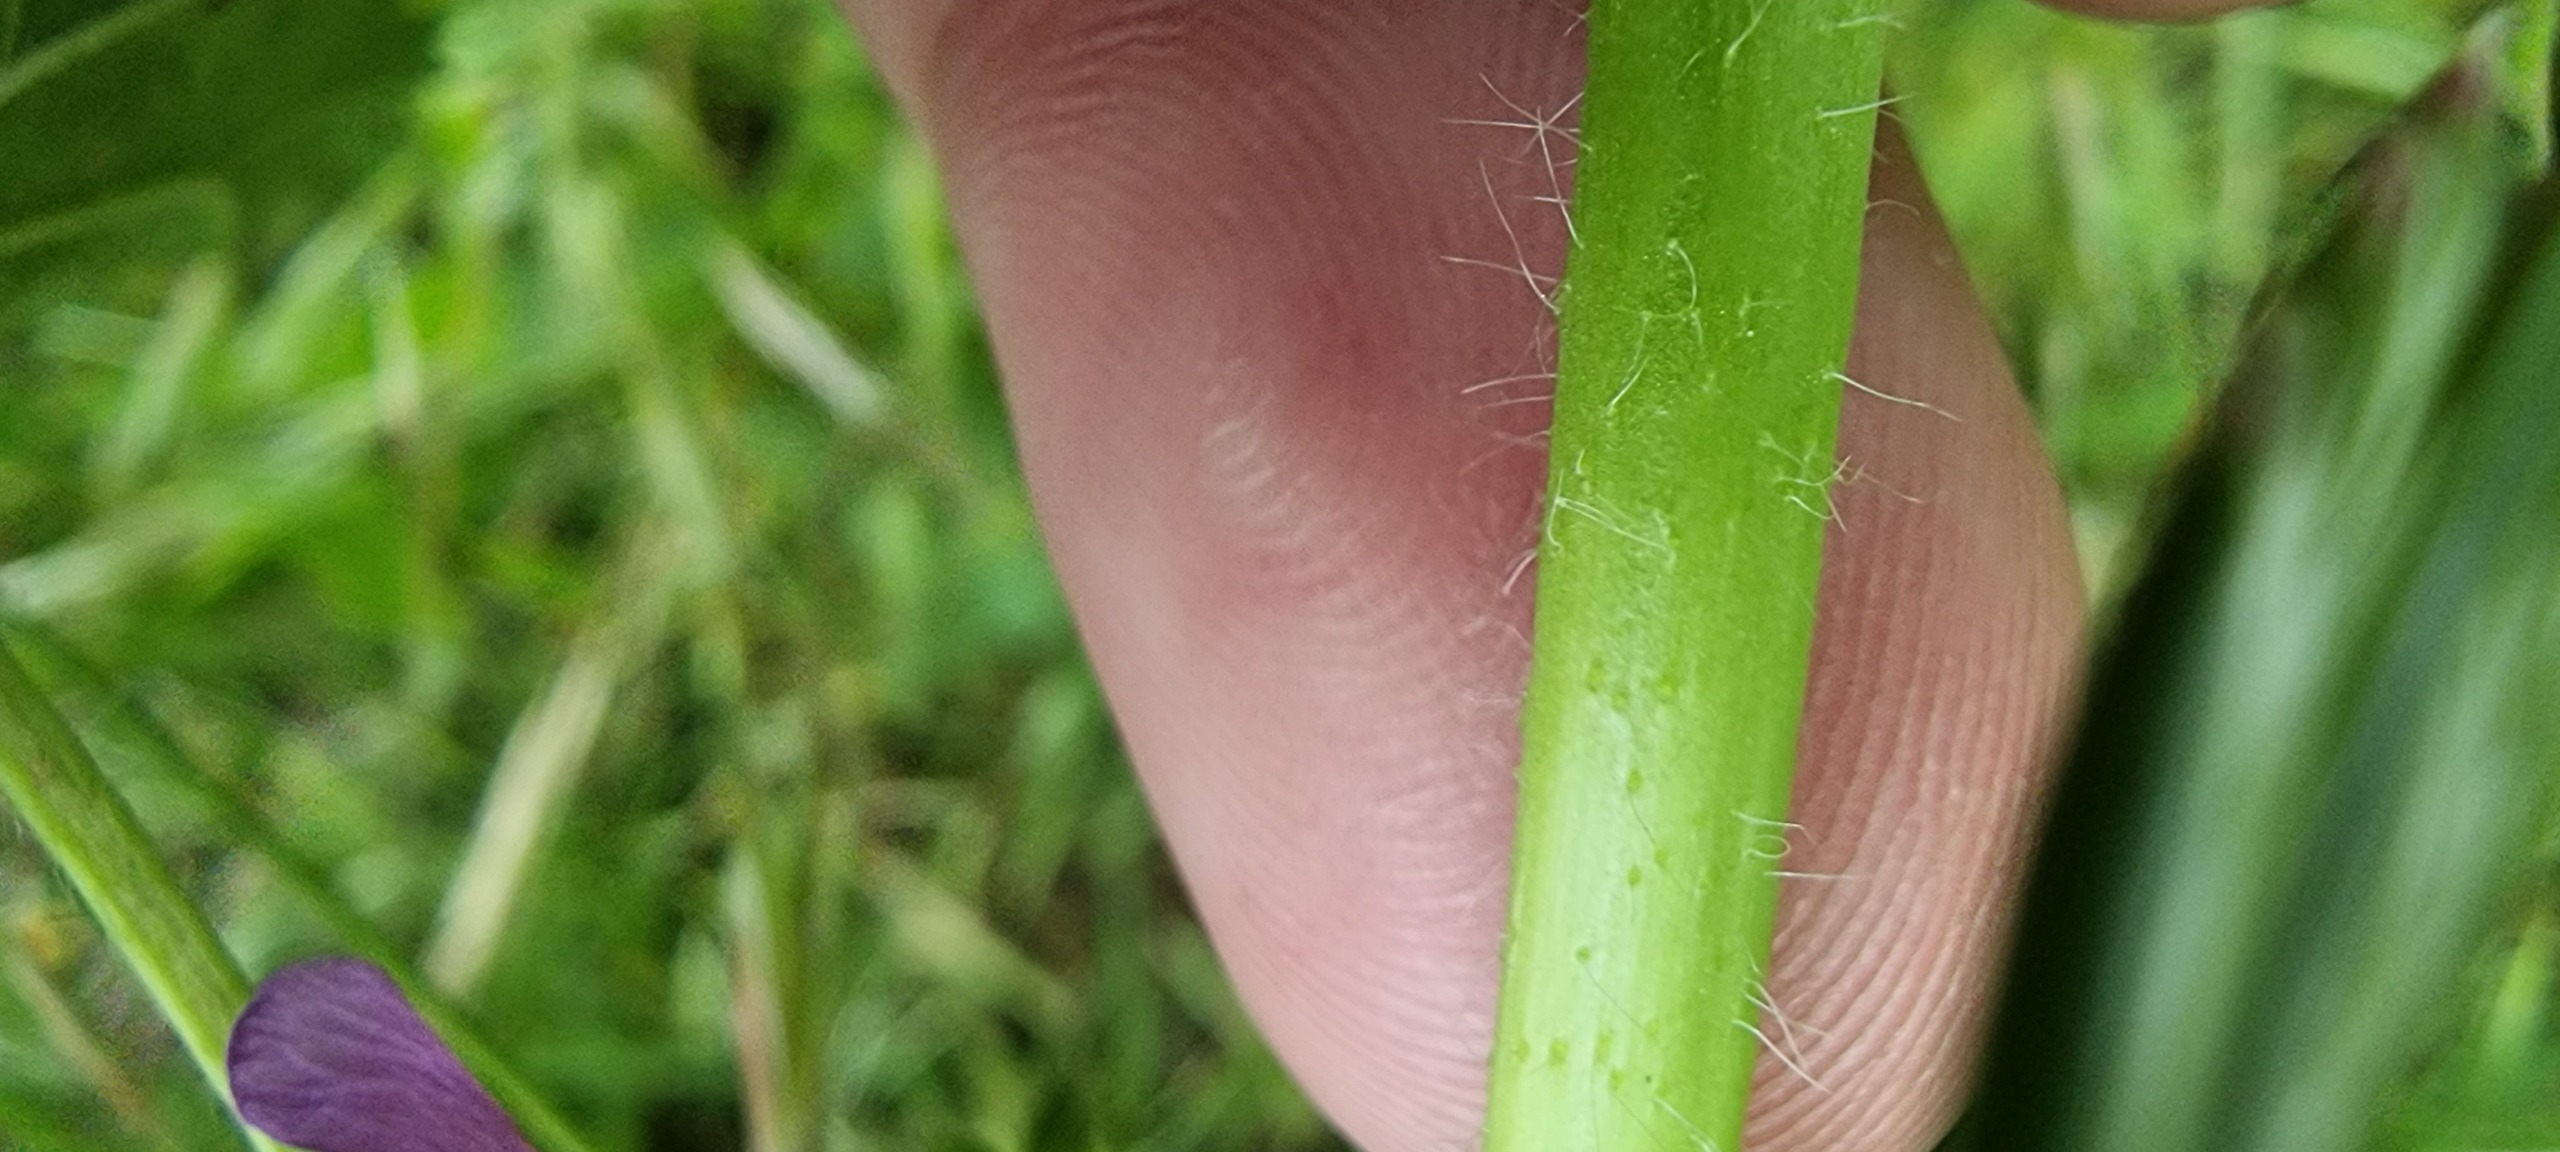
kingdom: Plantae
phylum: Tracheophyta
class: Magnoliopsida
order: Malvales
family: Malvaceae
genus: Malva
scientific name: Malva sylvestris
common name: Almindelig katost
